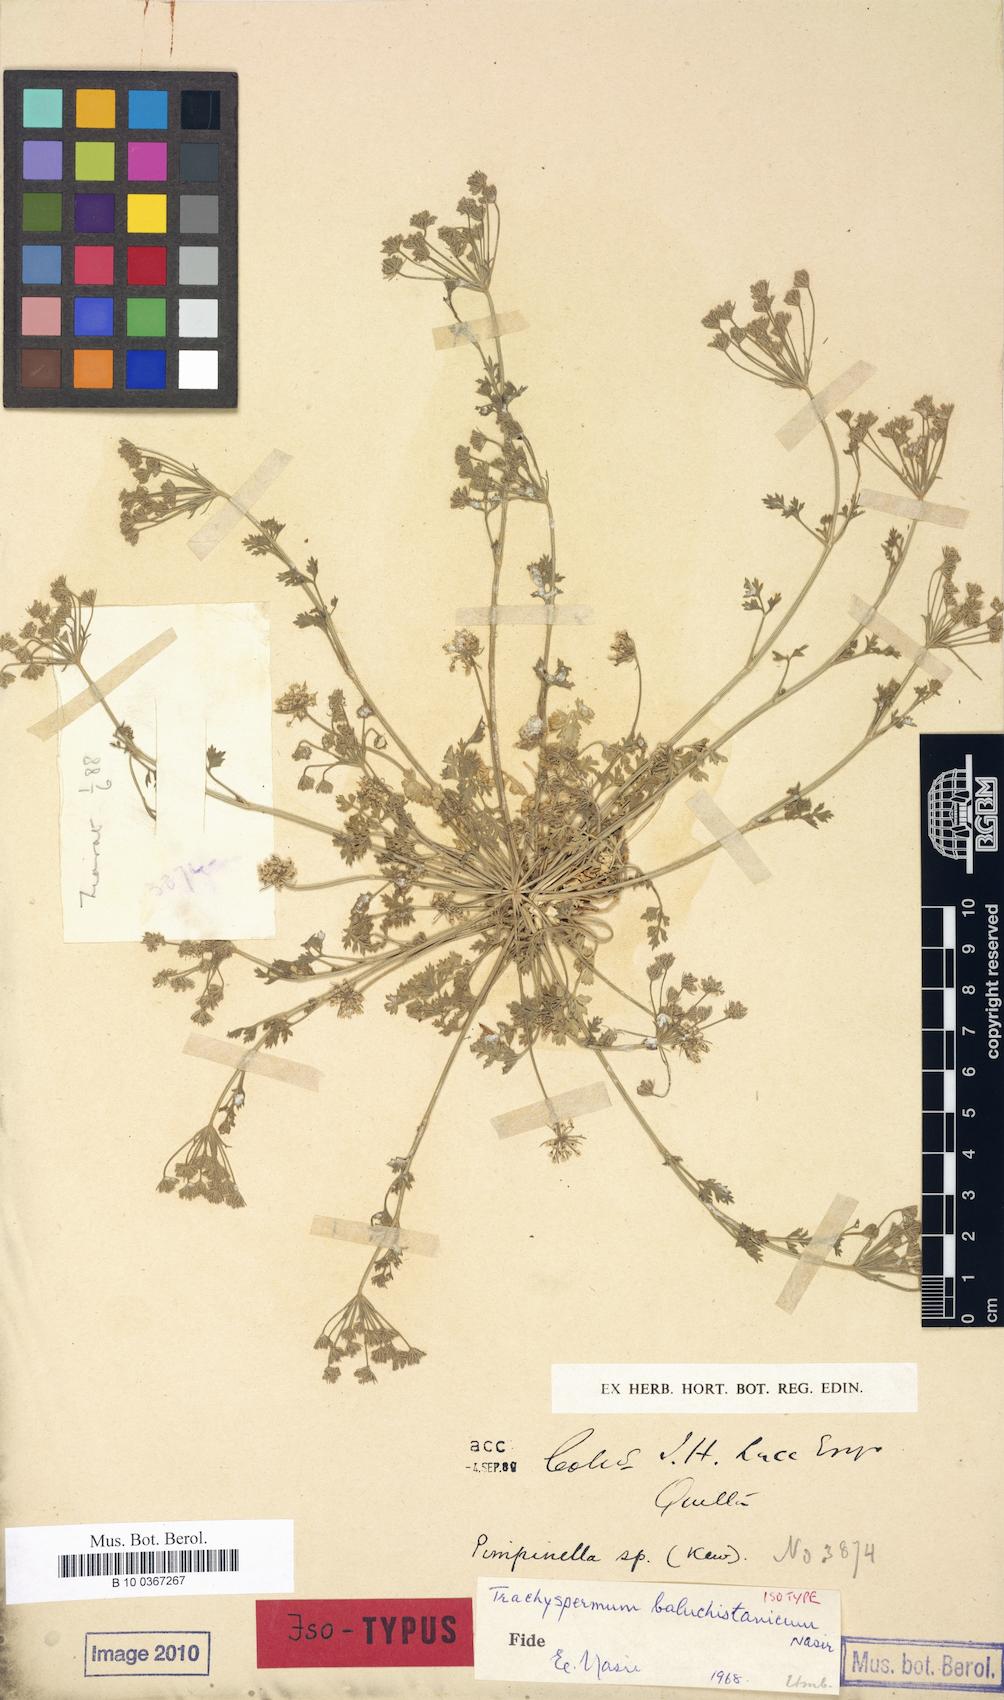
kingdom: Plantae
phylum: Tracheophyta
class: Magnoliopsida
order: Apiales
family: Apiaceae
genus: Trachyspermum
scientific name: Trachyspermum baluchistanicum
